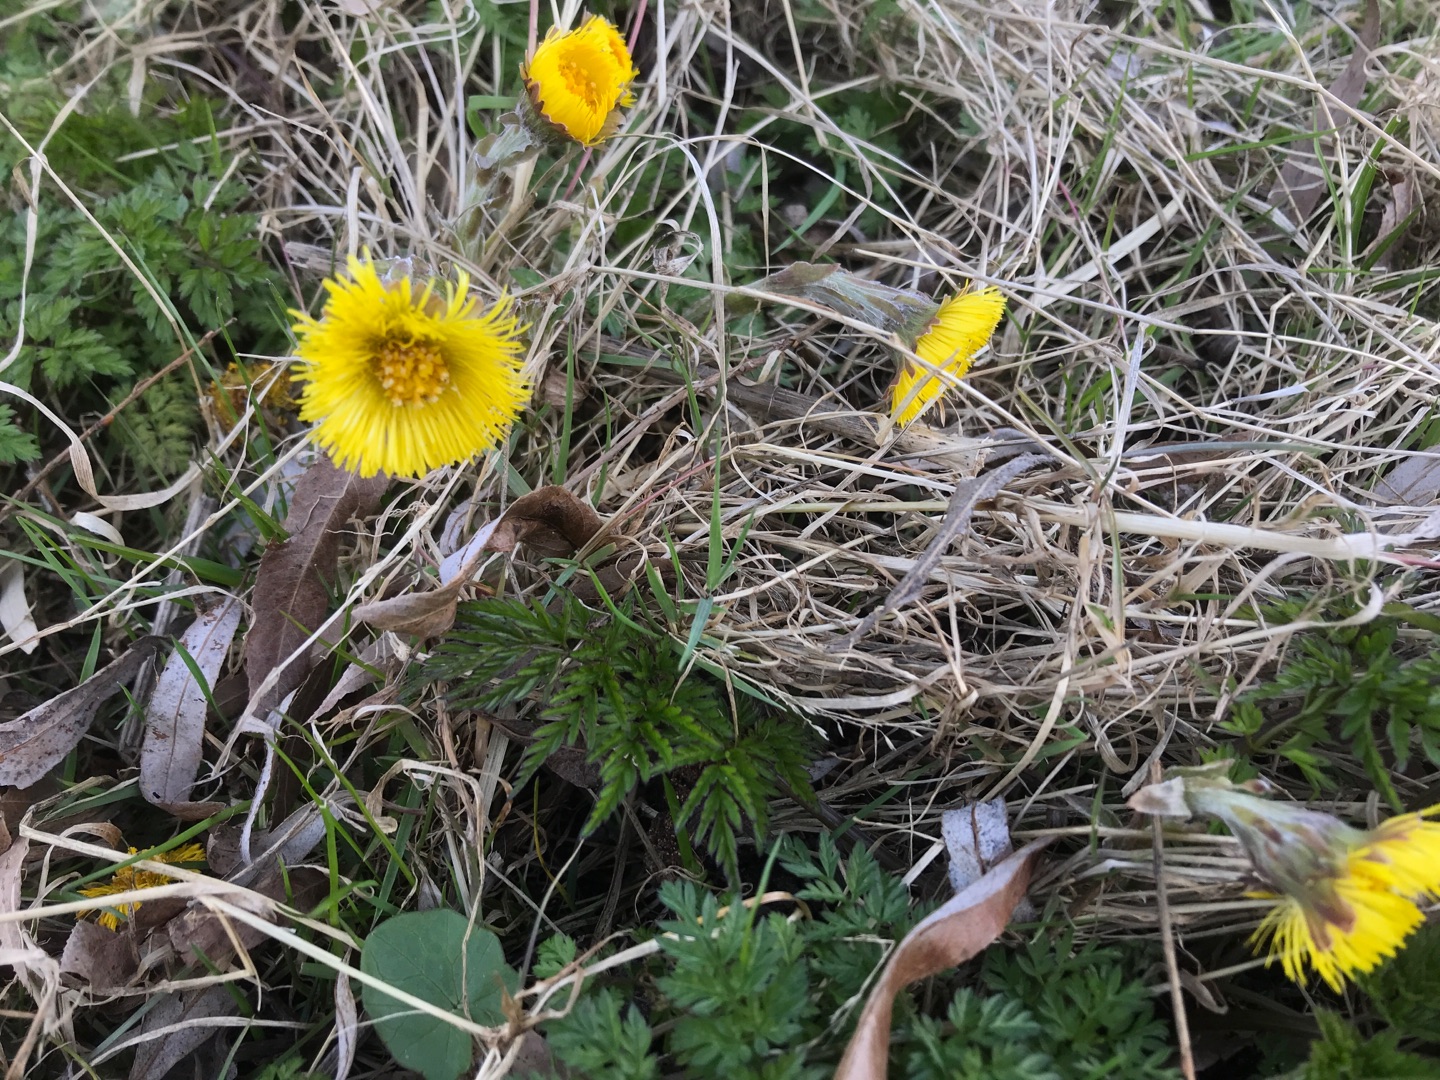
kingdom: Plantae
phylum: Tracheophyta
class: Magnoliopsida
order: Asterales
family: Asteraceae
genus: Tussilago
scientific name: Tussilago farfara
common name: Følfod
